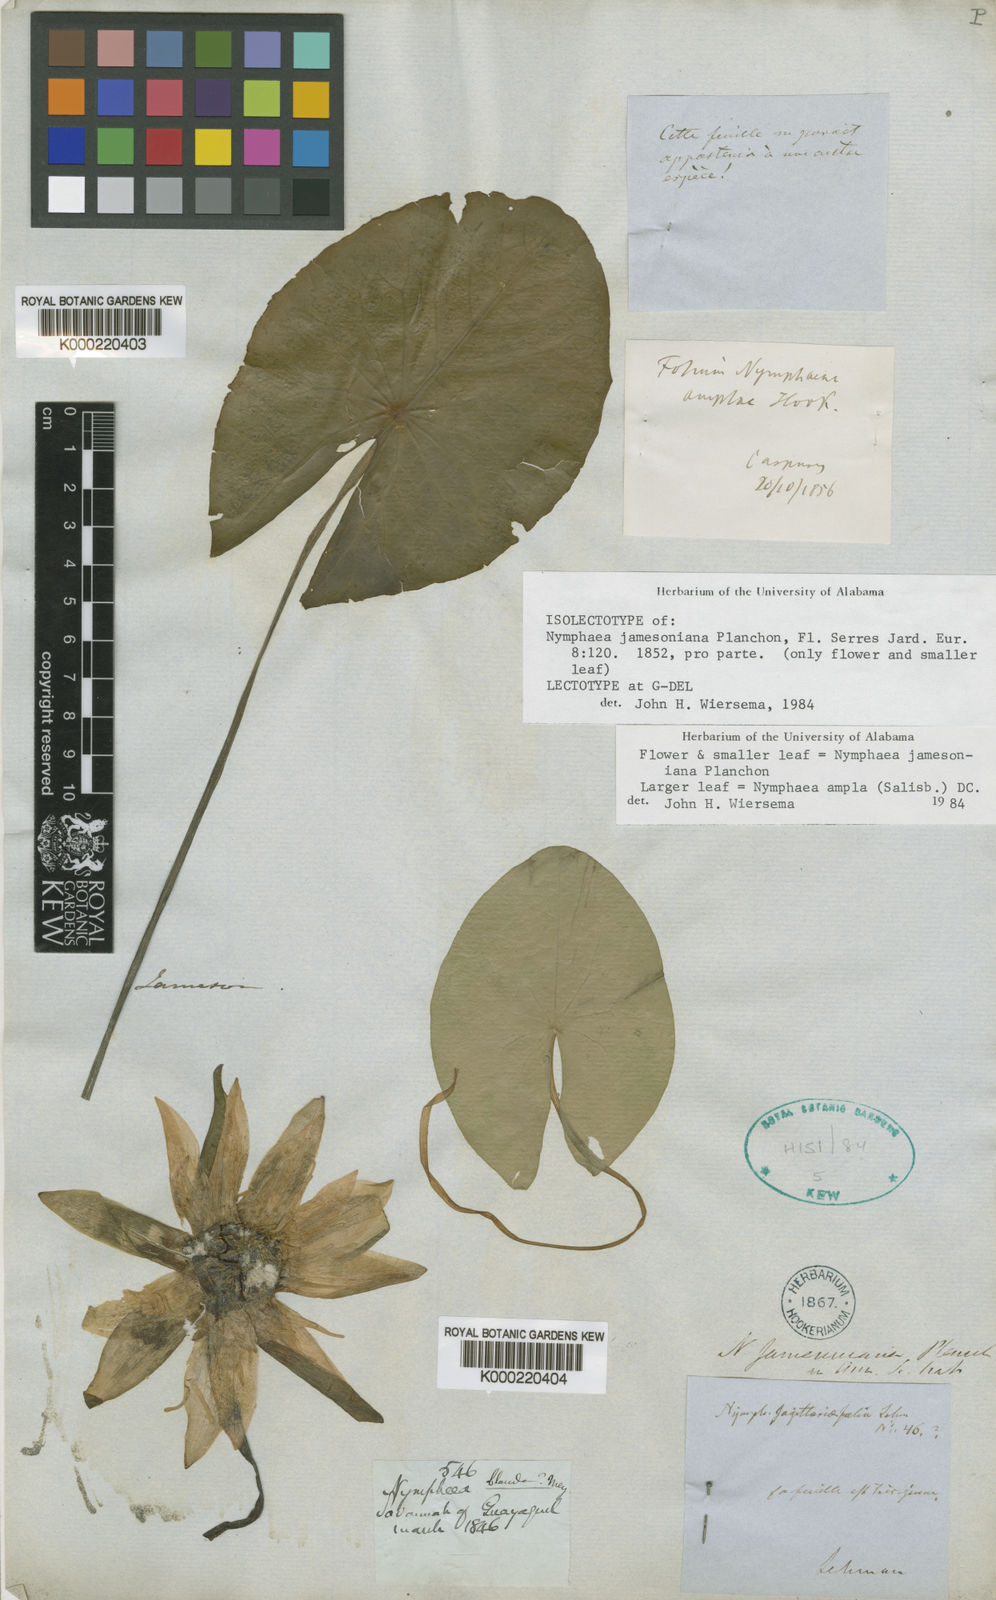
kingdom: Plantae
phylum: Tracheophyta
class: Magnoliopsida
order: Nymphaeales
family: Nymphaeaceae
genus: Nymphaea
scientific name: Nymphaea jamesoniana
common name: James' waterlily
